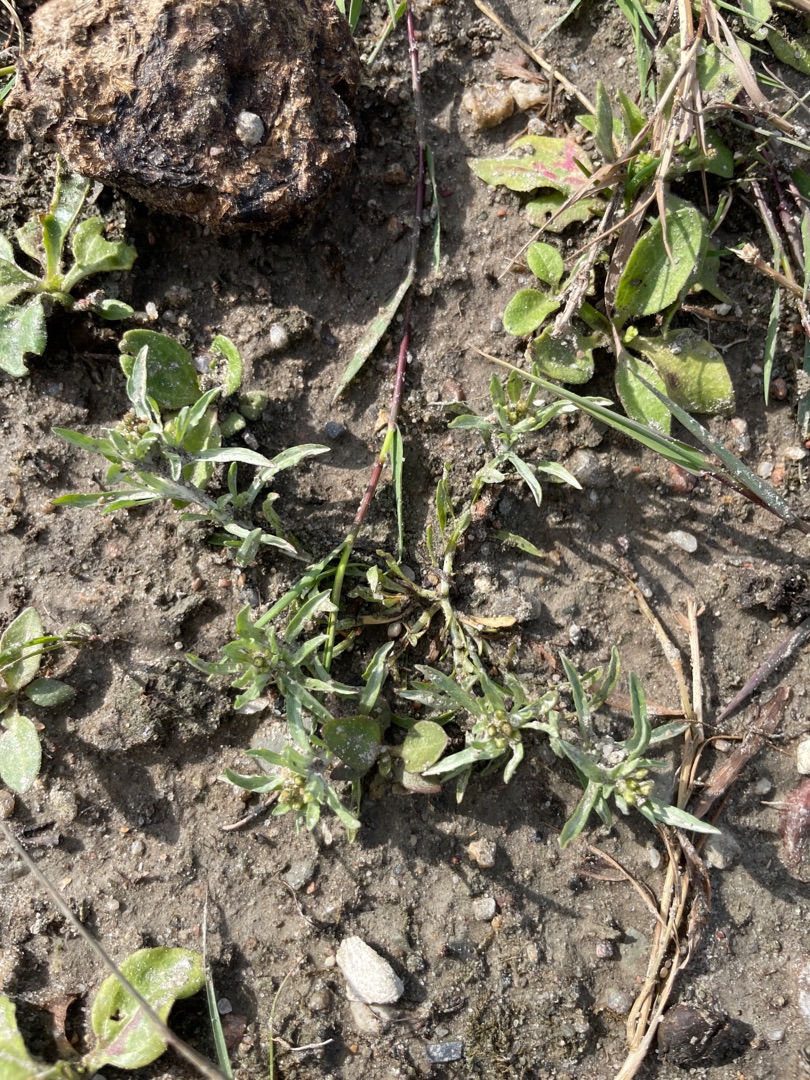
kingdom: Plantae
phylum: Tracheophyta
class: Magnoliopsida
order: Asterales
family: Asteraceae
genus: Gnaphalium
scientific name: Gnaphalium uliginosum
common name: Sump-evighedsblomst
